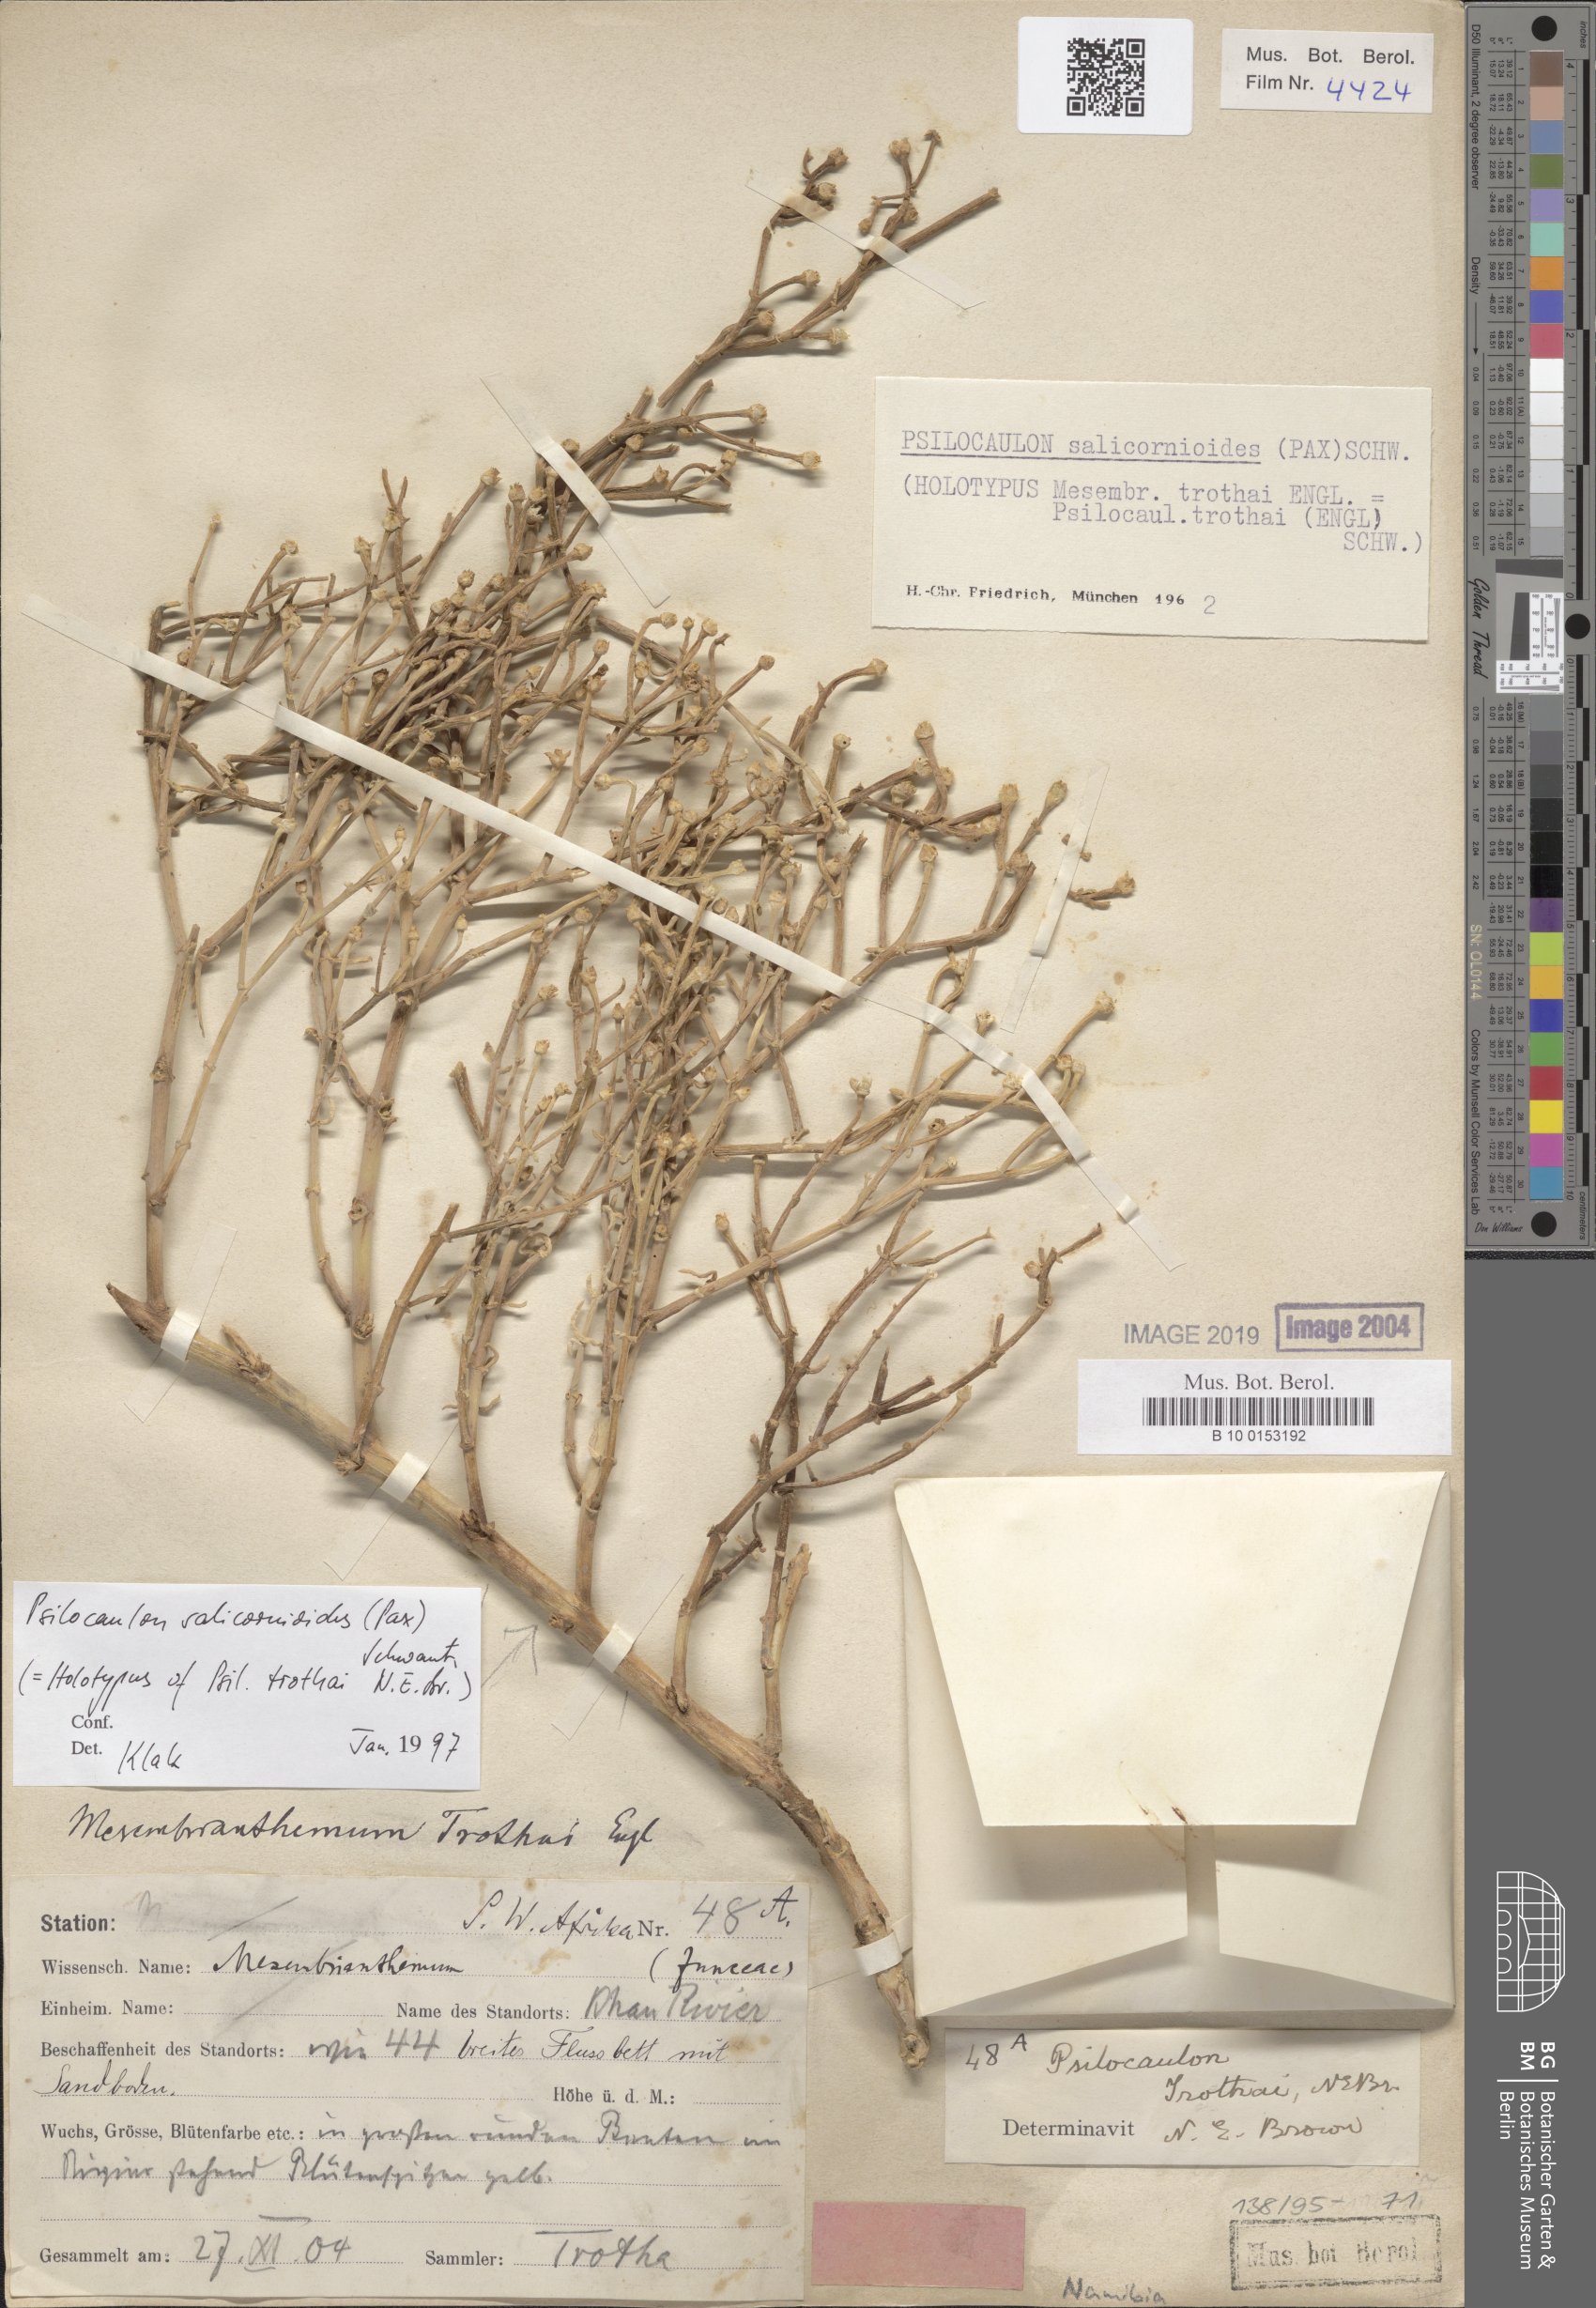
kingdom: Plantae
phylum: Tracheophyta
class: Magnoliopsida
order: Caryophyllales
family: Aizoaceae
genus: Mesembryanthemum
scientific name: Mesembryanthemum salicornioides
